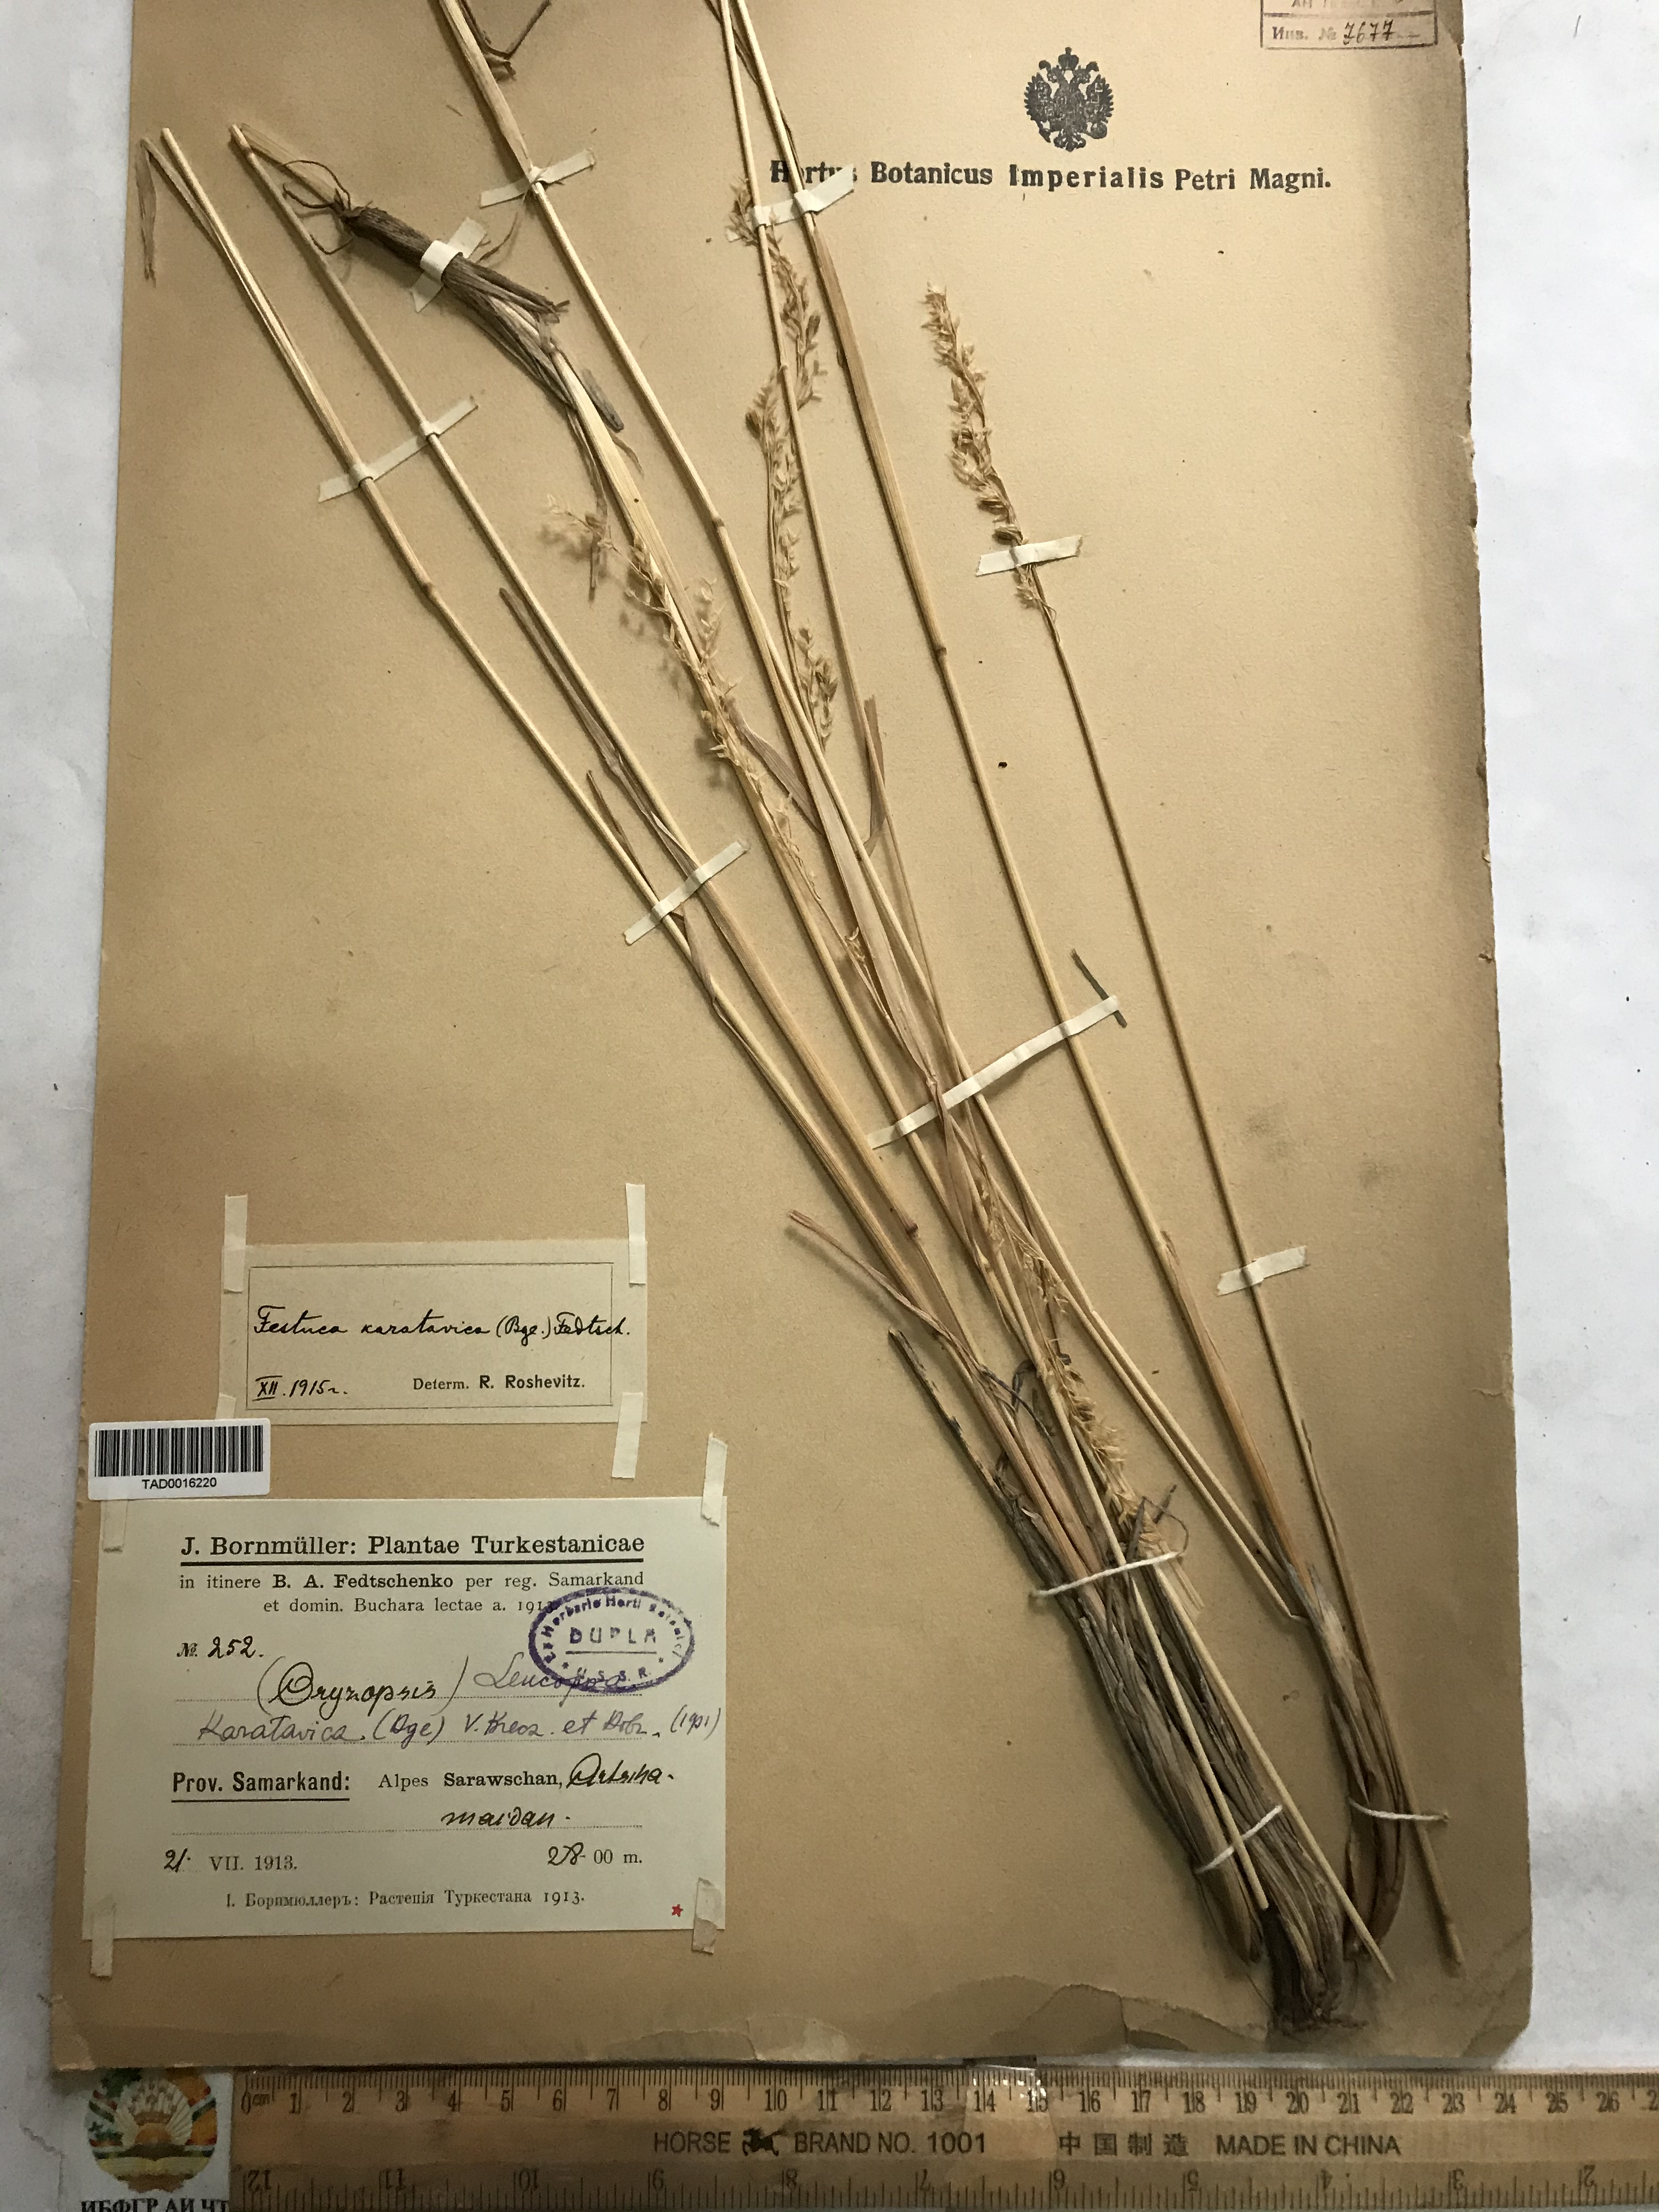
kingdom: Plantae
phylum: Tracheophyta
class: Liliopsida
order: Poales
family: Poaceae
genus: Festuca
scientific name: Festuca karatavica
